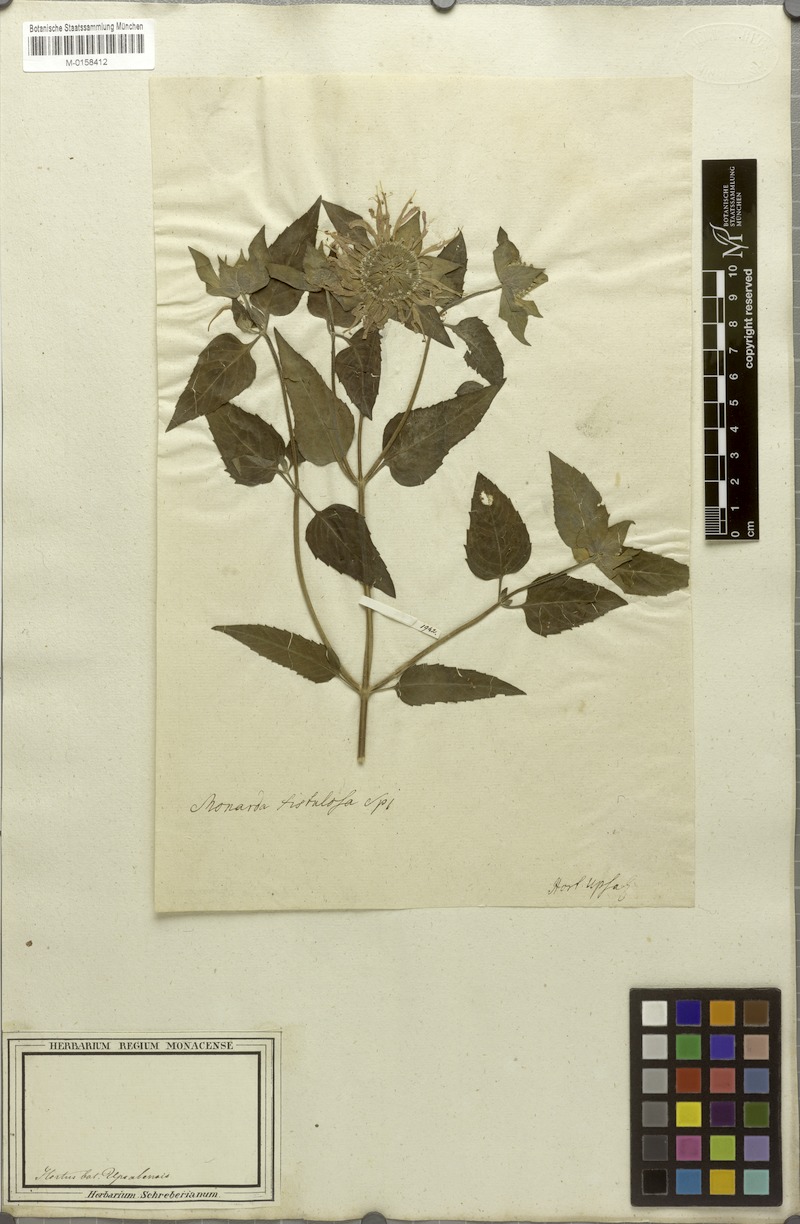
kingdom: Plantae
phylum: Tracheophyta
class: Magnoliopsida
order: Lamiales
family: Lamiaceae
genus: Monarda
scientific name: Monarda fistulosa
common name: Purple beebalm
